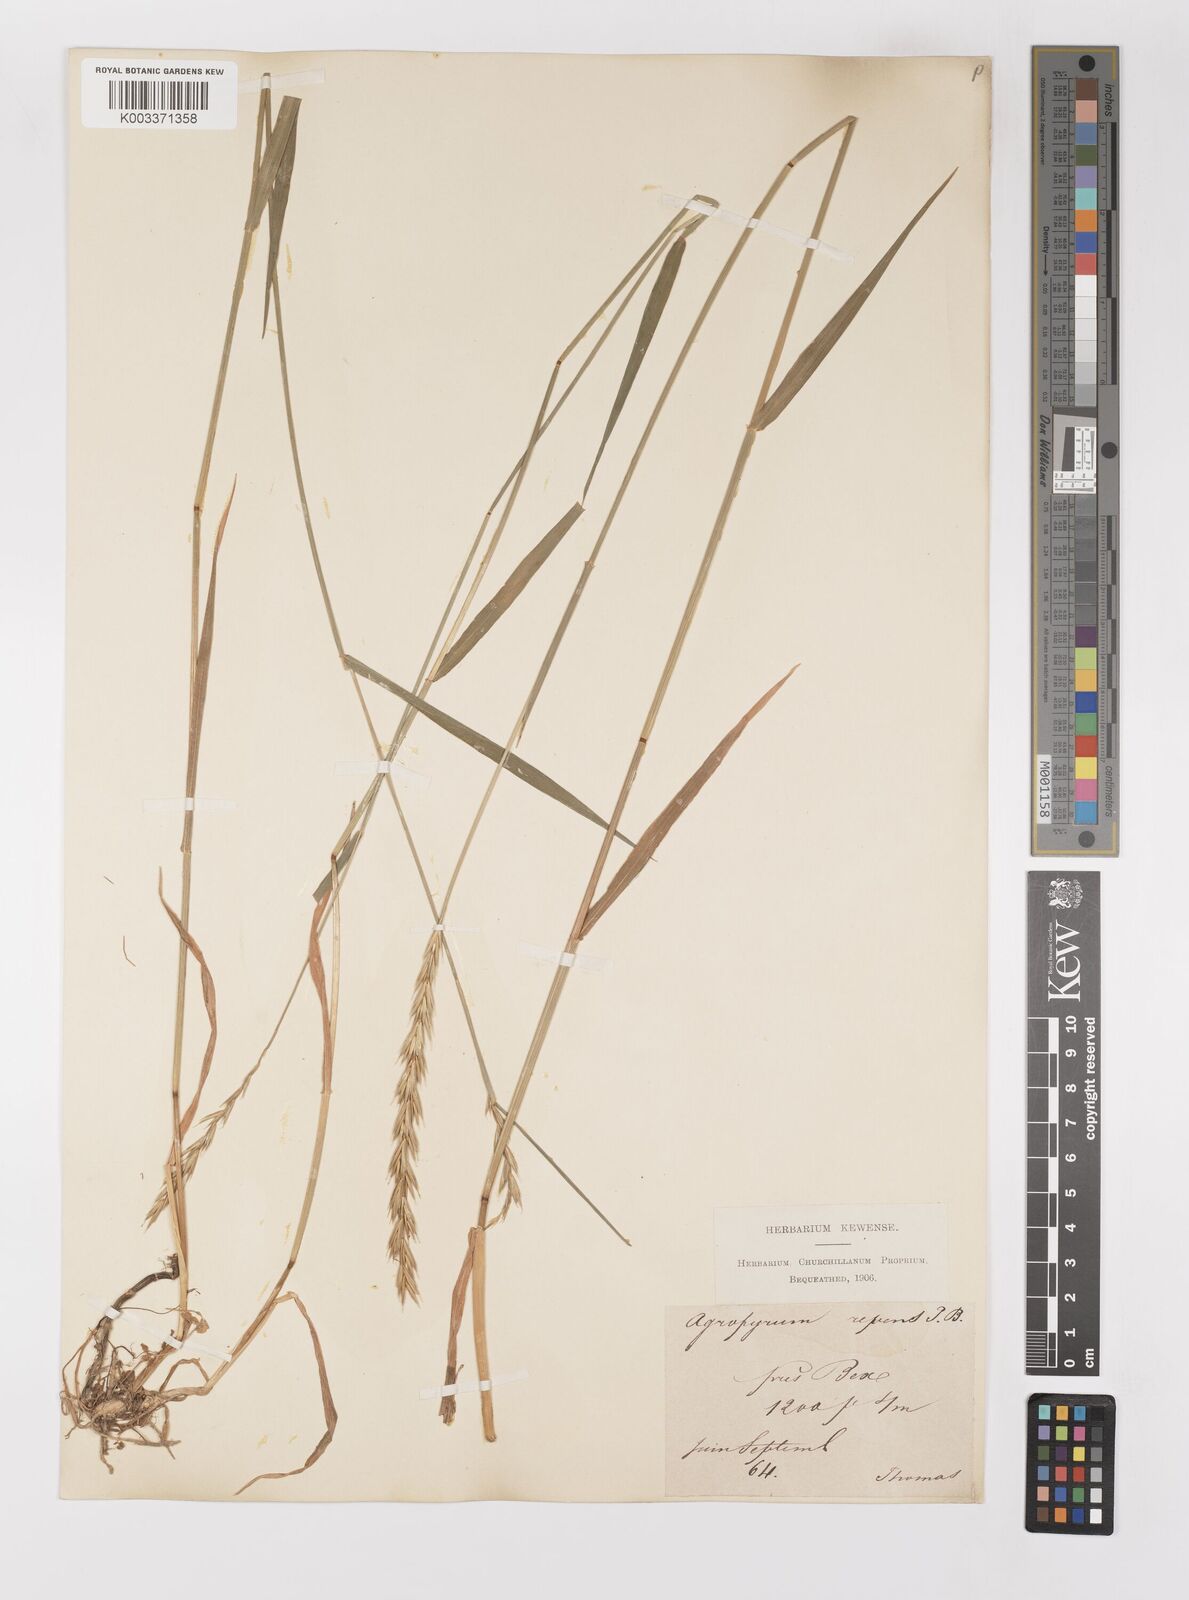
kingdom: Plantae
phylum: Tracheophyta
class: Liliopsida
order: Poales
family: Poaceae
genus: Elymus
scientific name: Elymus repens
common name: Quackgrass
